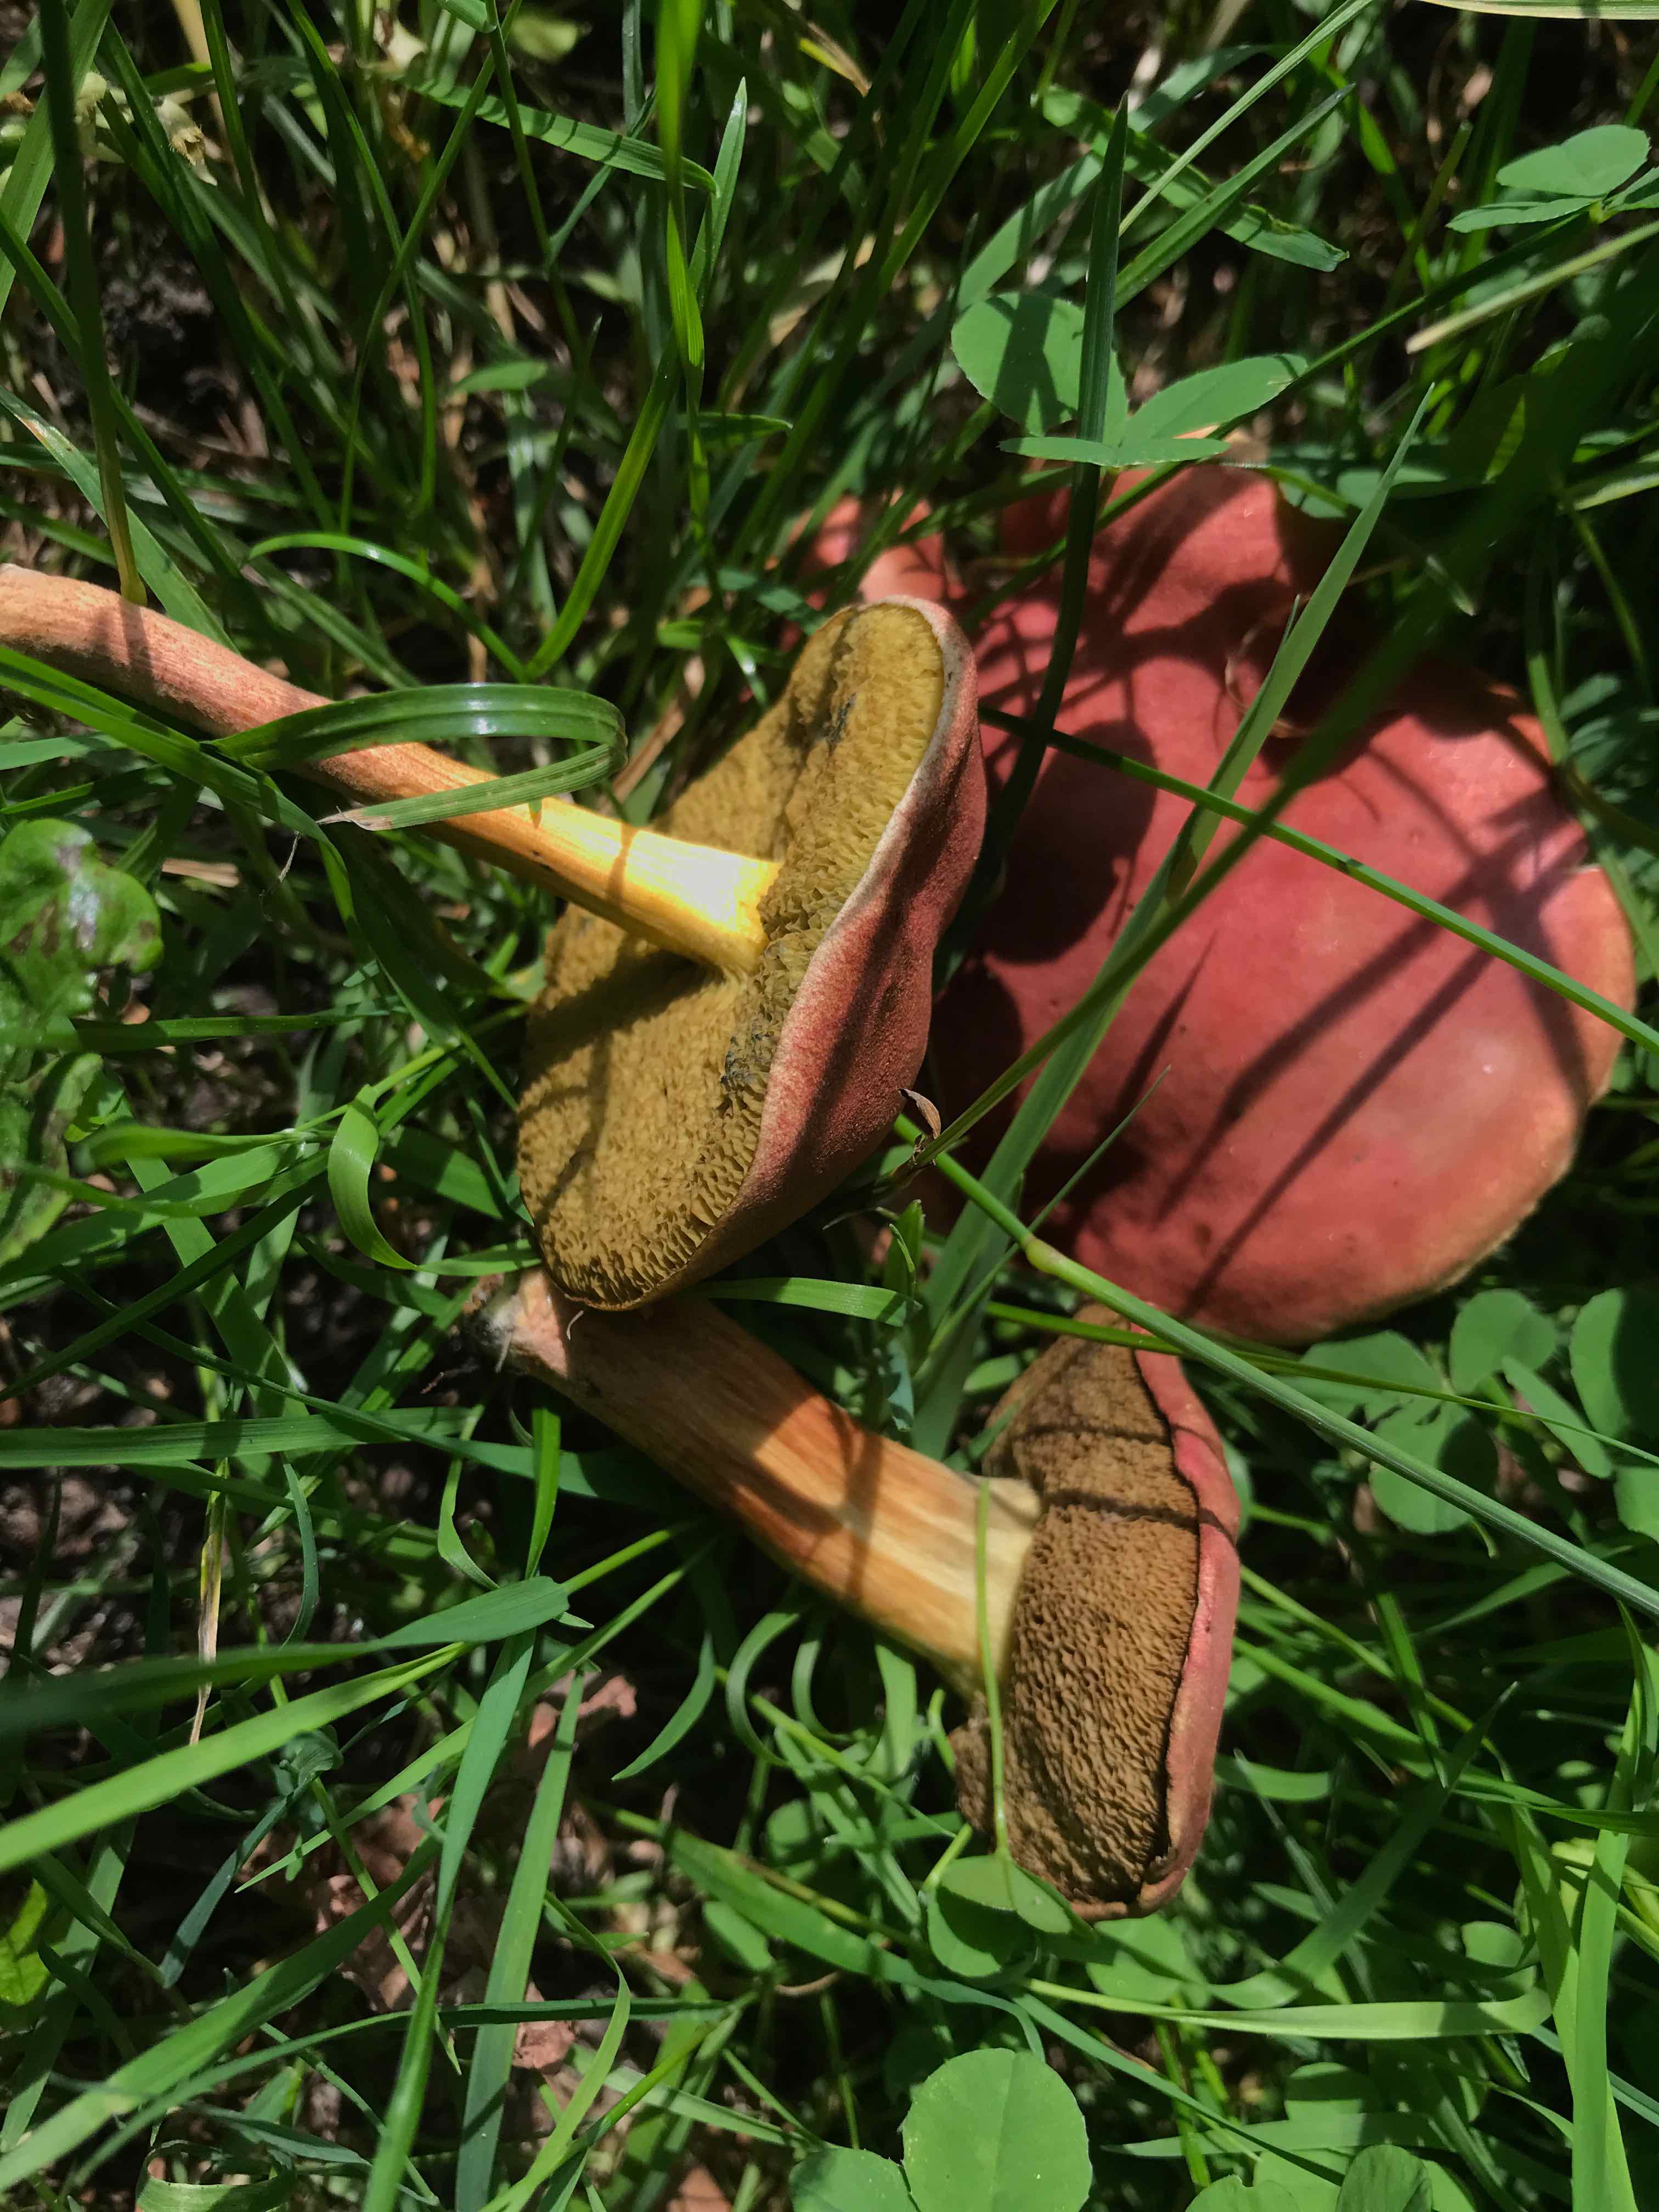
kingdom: Fungi
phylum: Basidiomycota
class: Agaricomycetes
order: Boletales
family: Boletaceae
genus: Hortiboletus
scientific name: Hortiboletus rubellus
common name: blodrød rørhat
